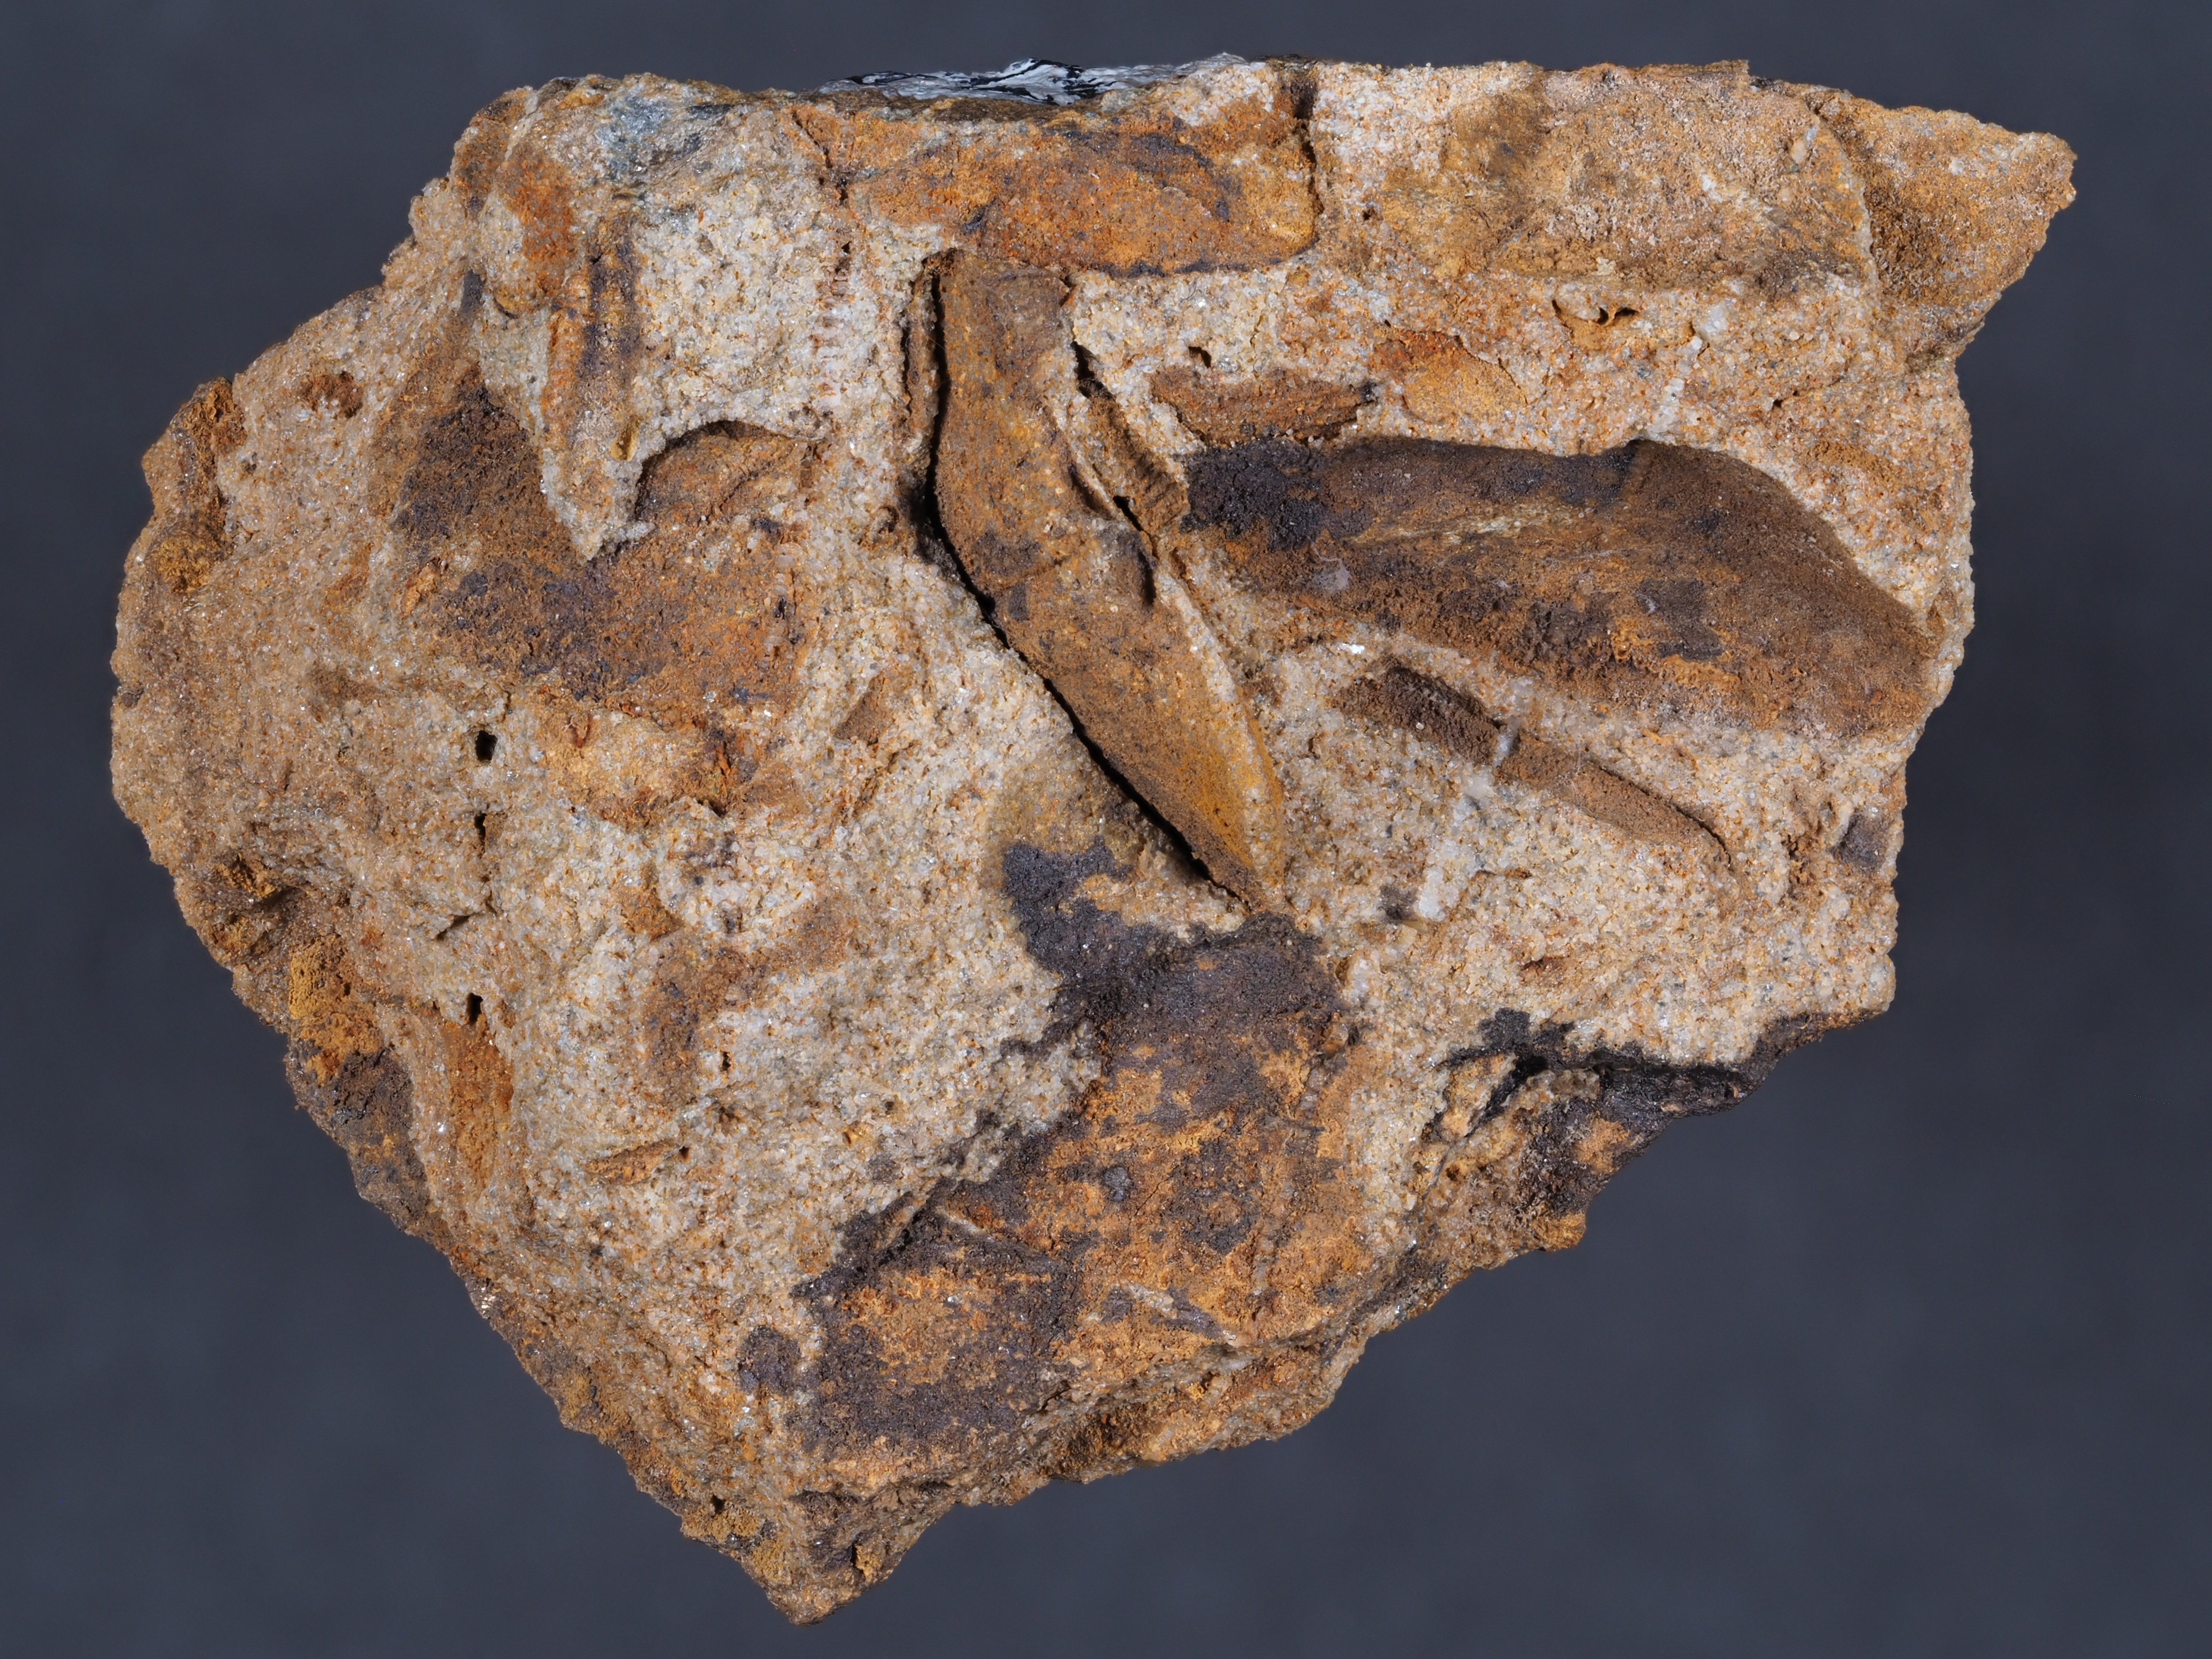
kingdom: Animalia
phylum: Echinodermata
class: Crinoidea
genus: Diamenocrinus
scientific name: Diamenocrinus
